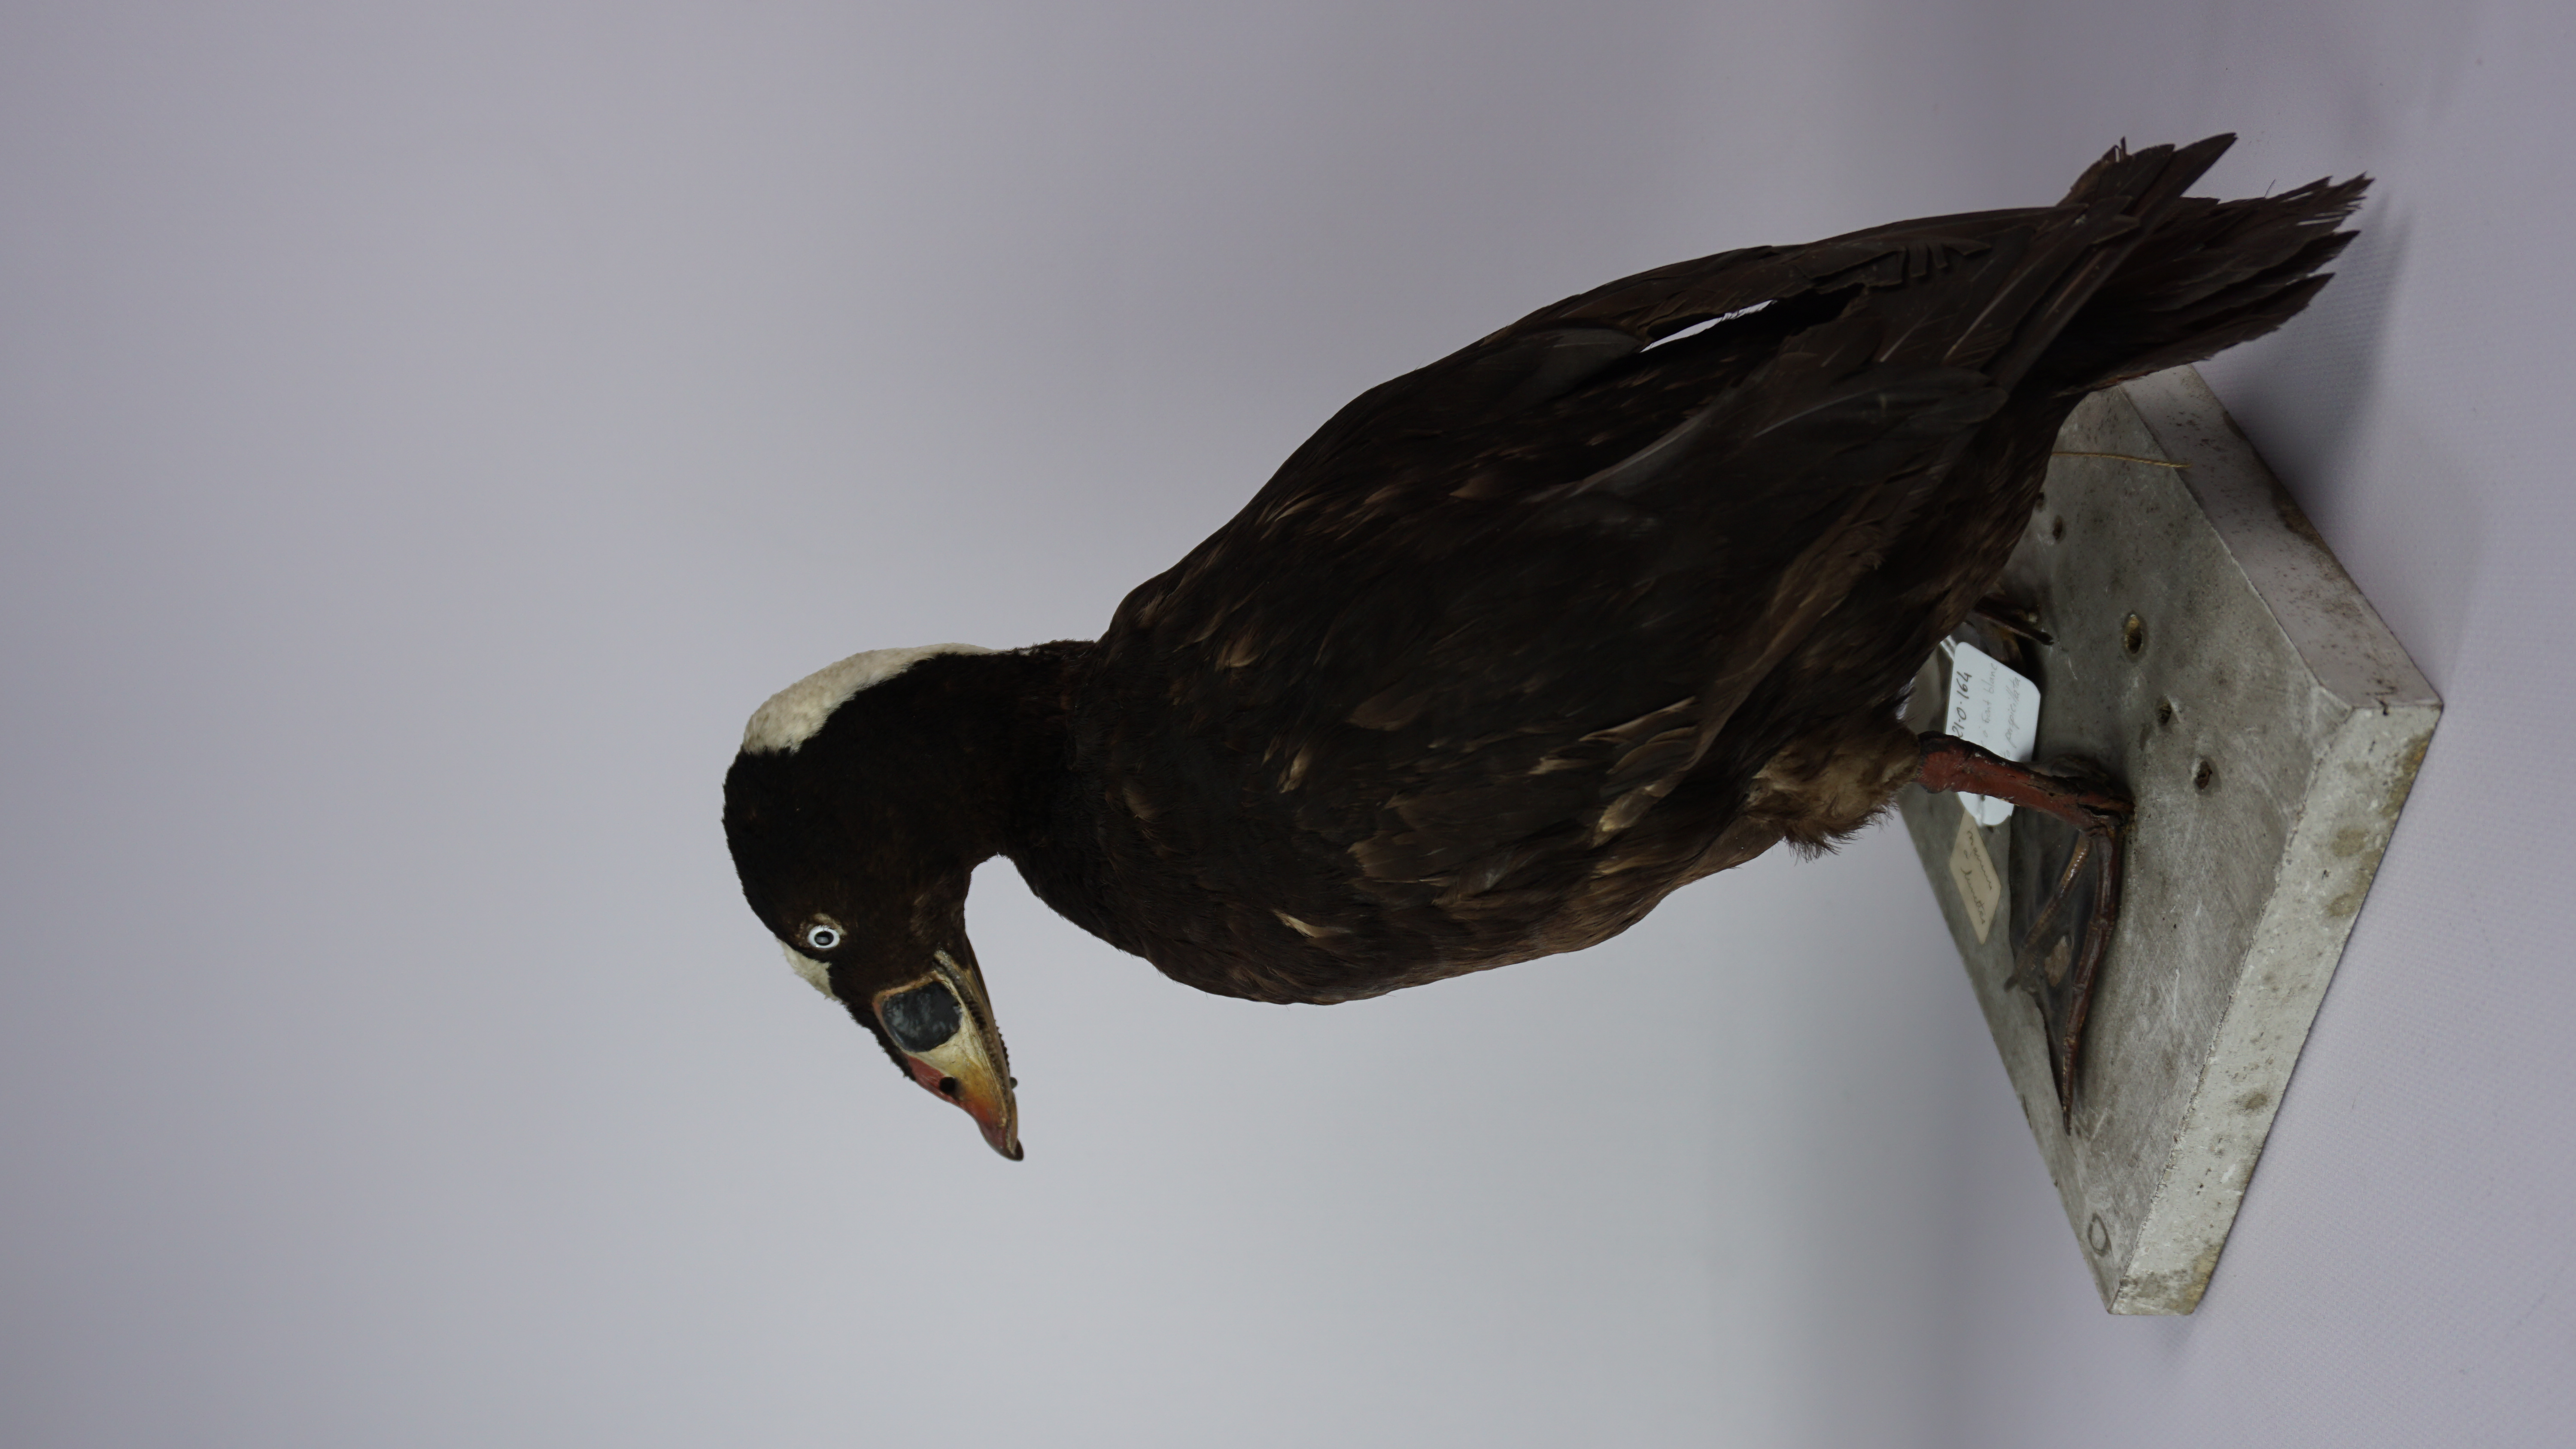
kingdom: Animalia
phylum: Chordata
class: Aves
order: Anseriformes
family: Anatidae
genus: Melanitta
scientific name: Melanitta perspicillata
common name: Surf scoter
